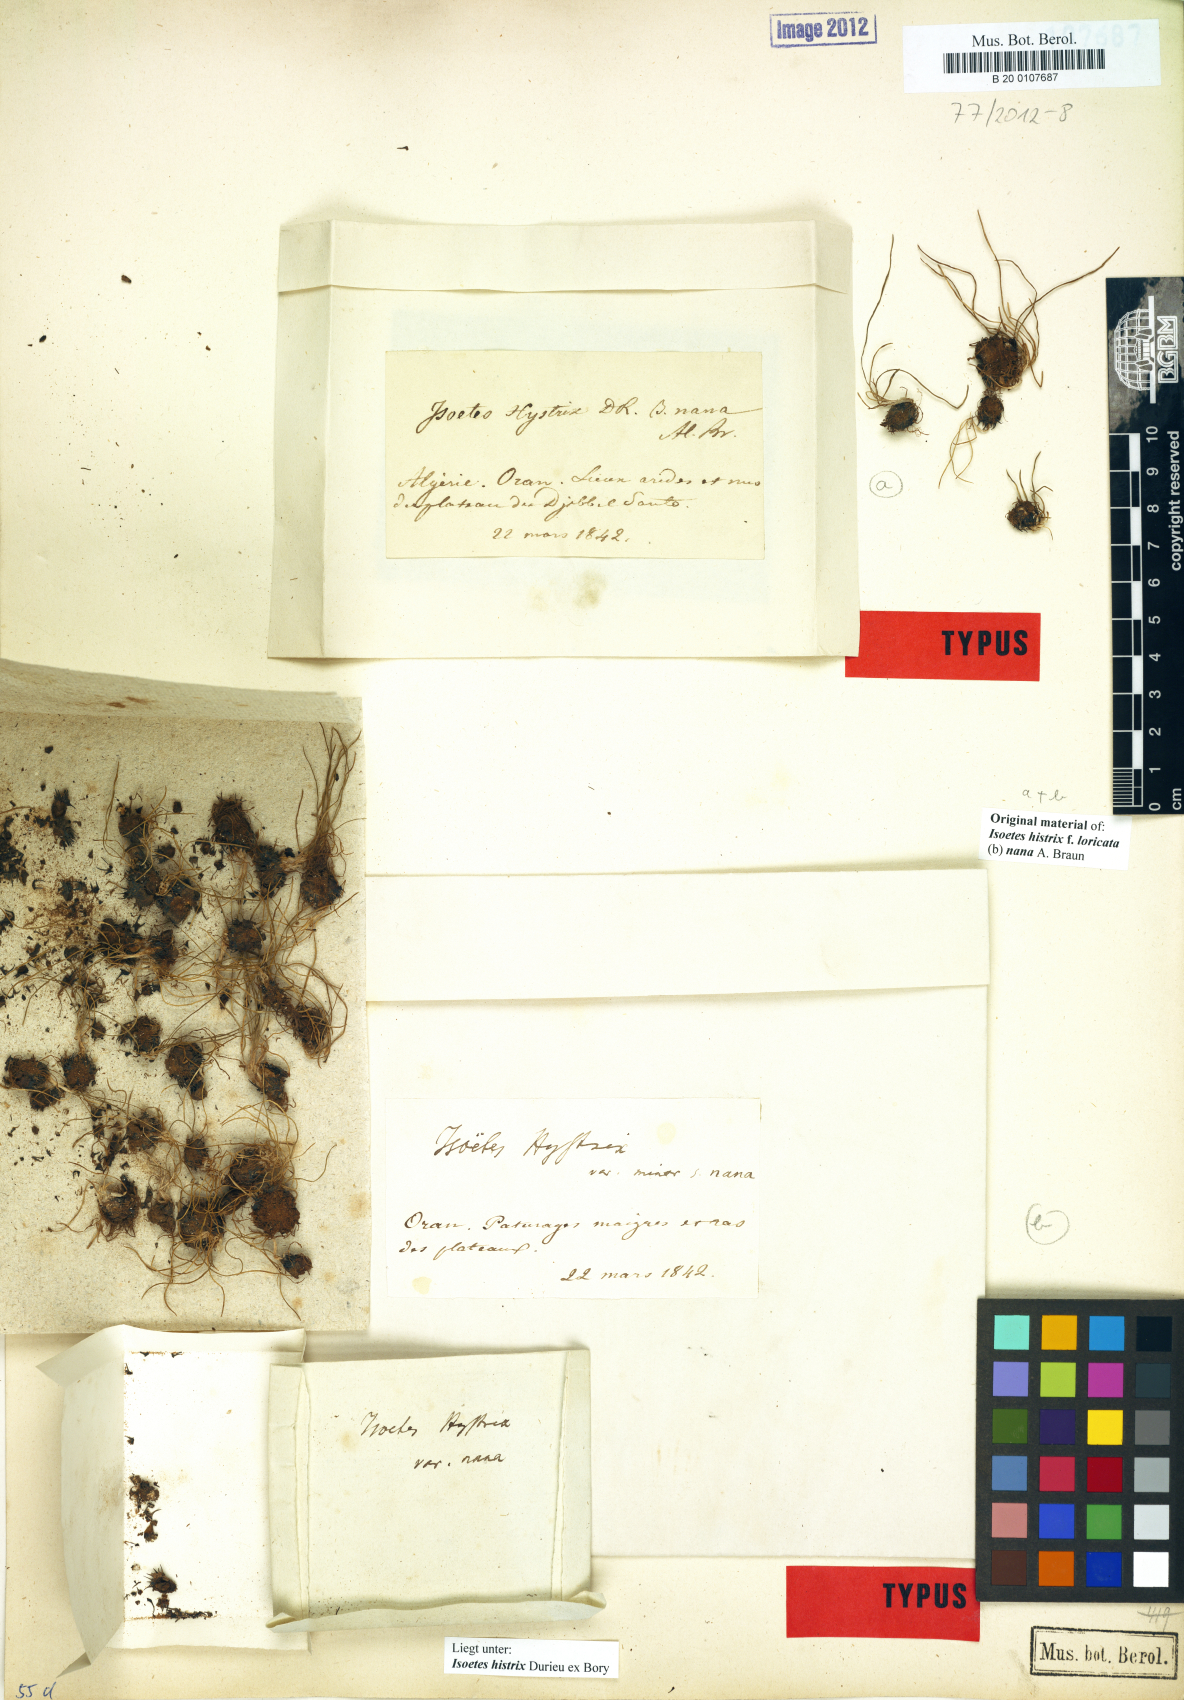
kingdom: Plantae
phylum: Tracheophyta
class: Lycopodiopsida
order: Isoetales
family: Isoetaceae
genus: Isoetes
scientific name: Isoetes histrix
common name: Land quillwort
